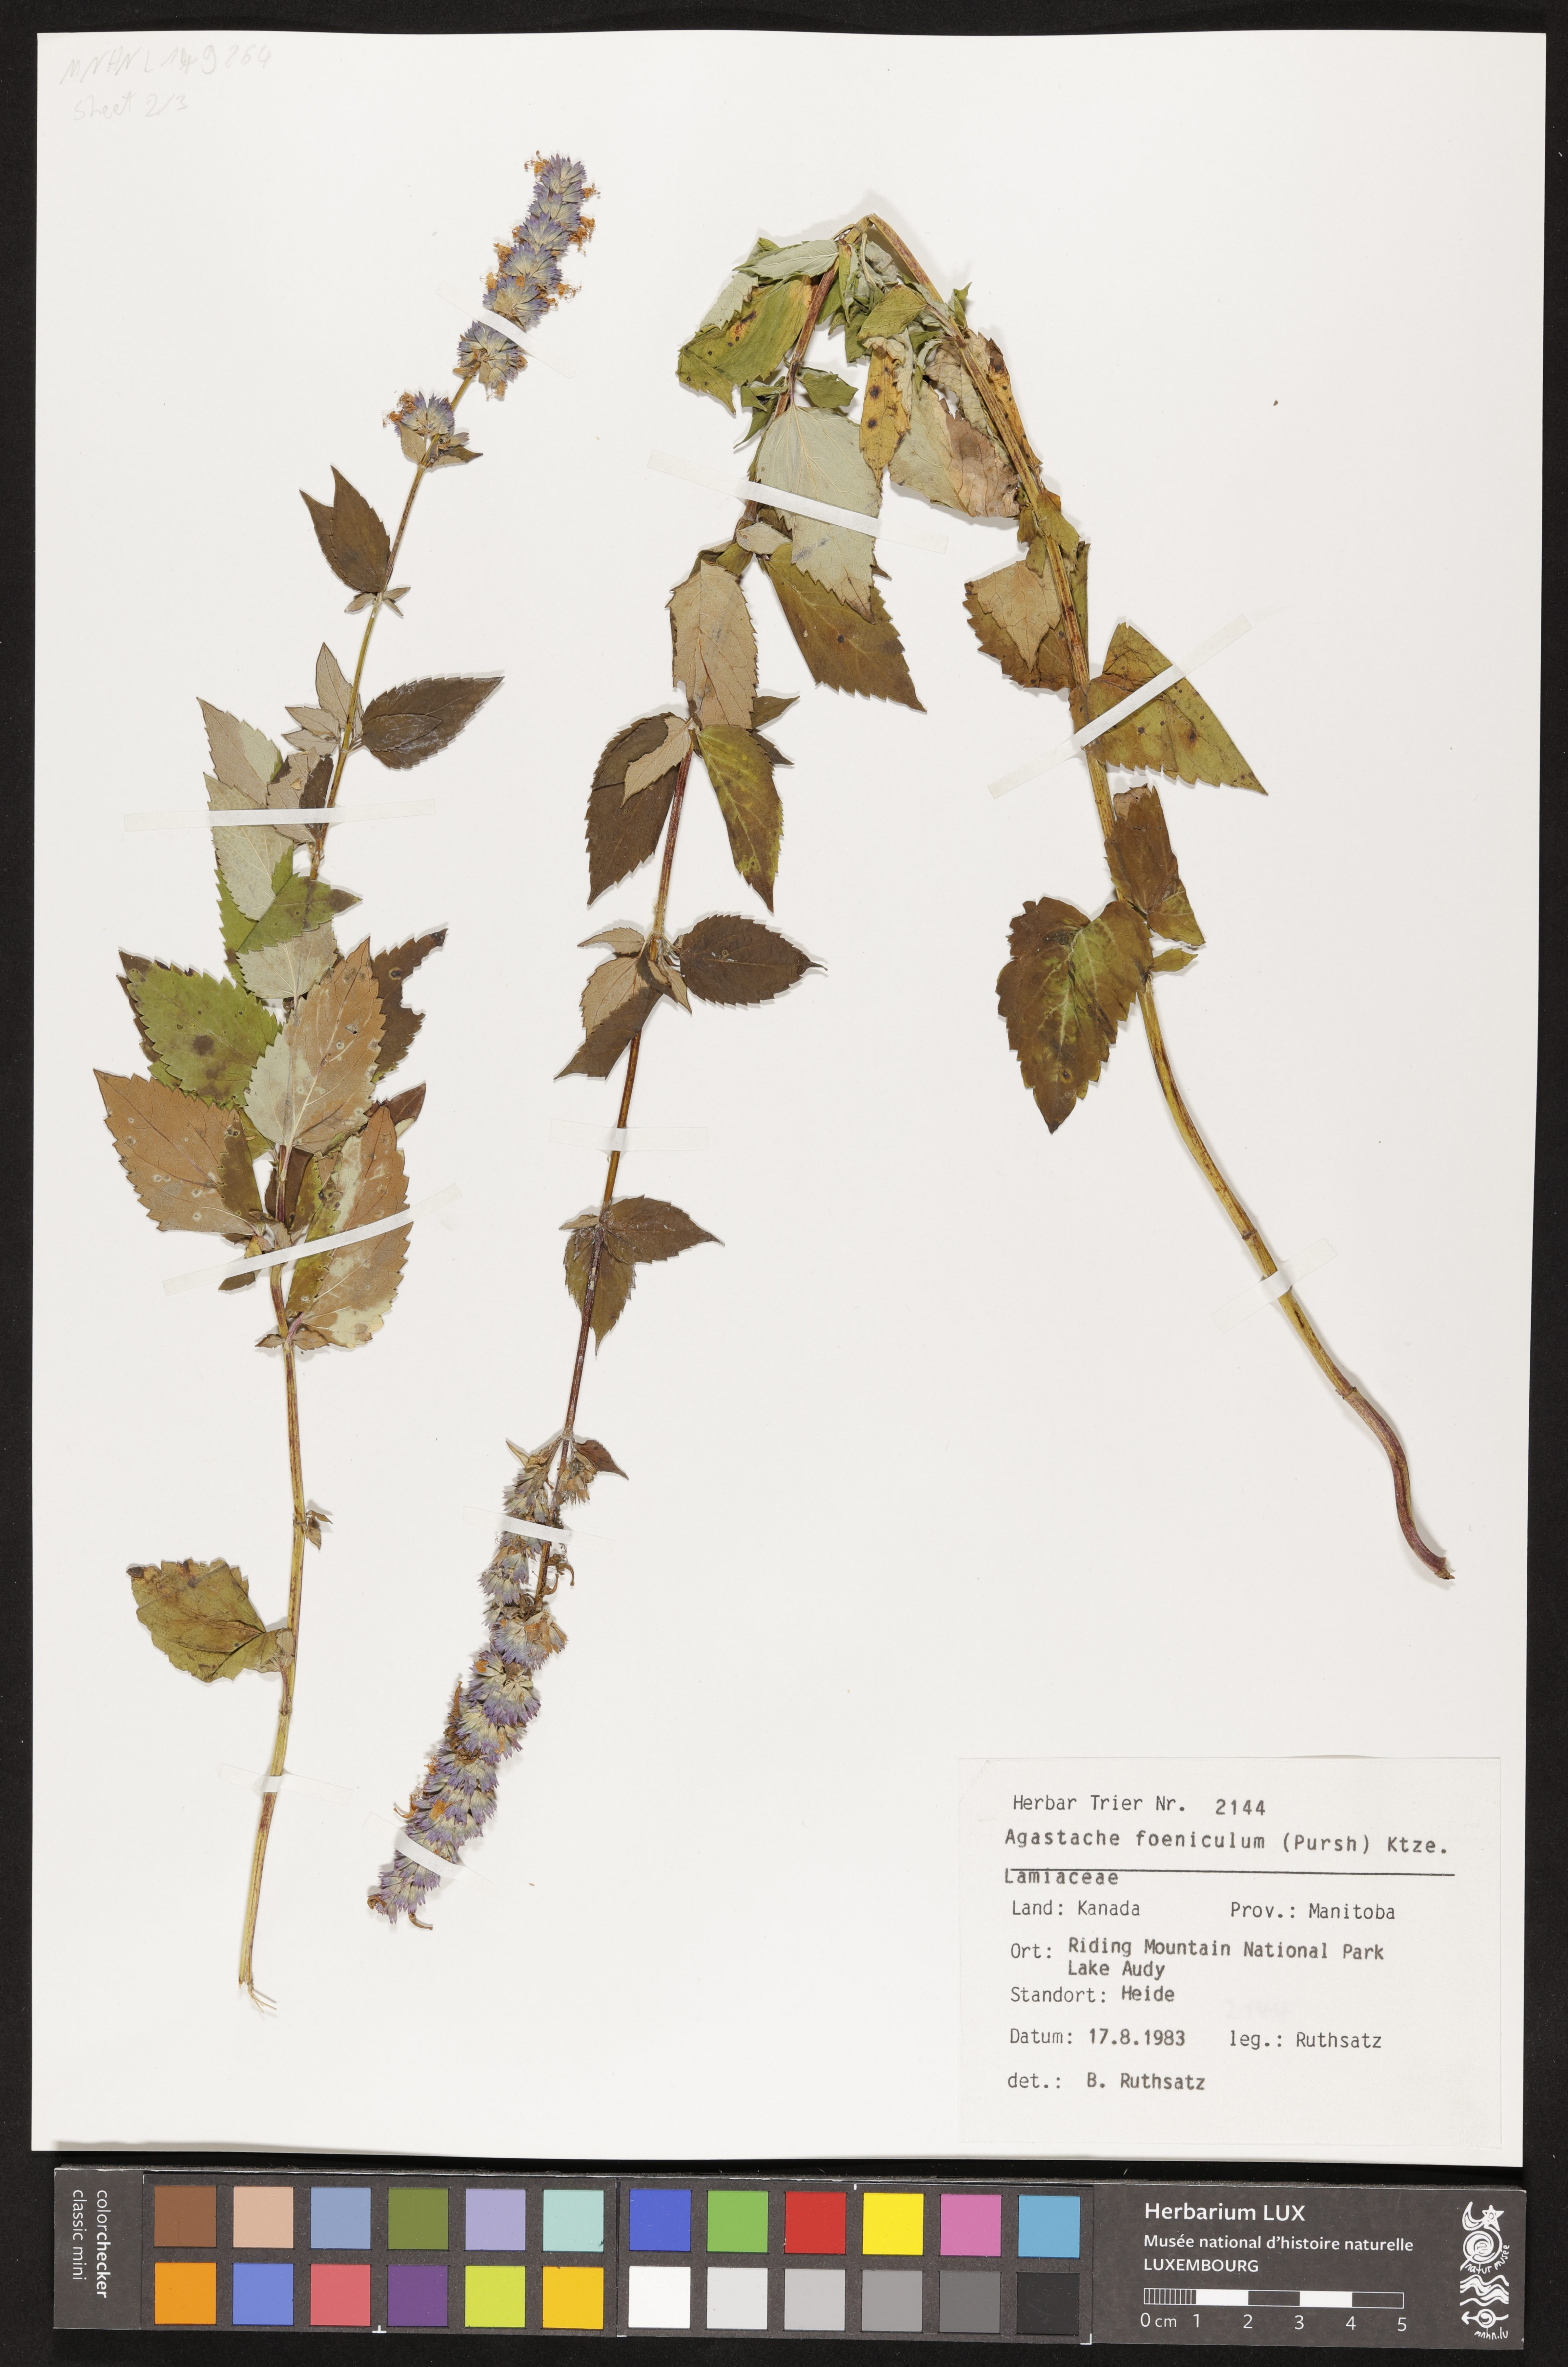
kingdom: Plantae
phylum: Tracheophyta
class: Magnoliopsida
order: Lamiales
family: Lamiaceae
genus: Agastache
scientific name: Agastache foeniculum
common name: Anise hyssop
